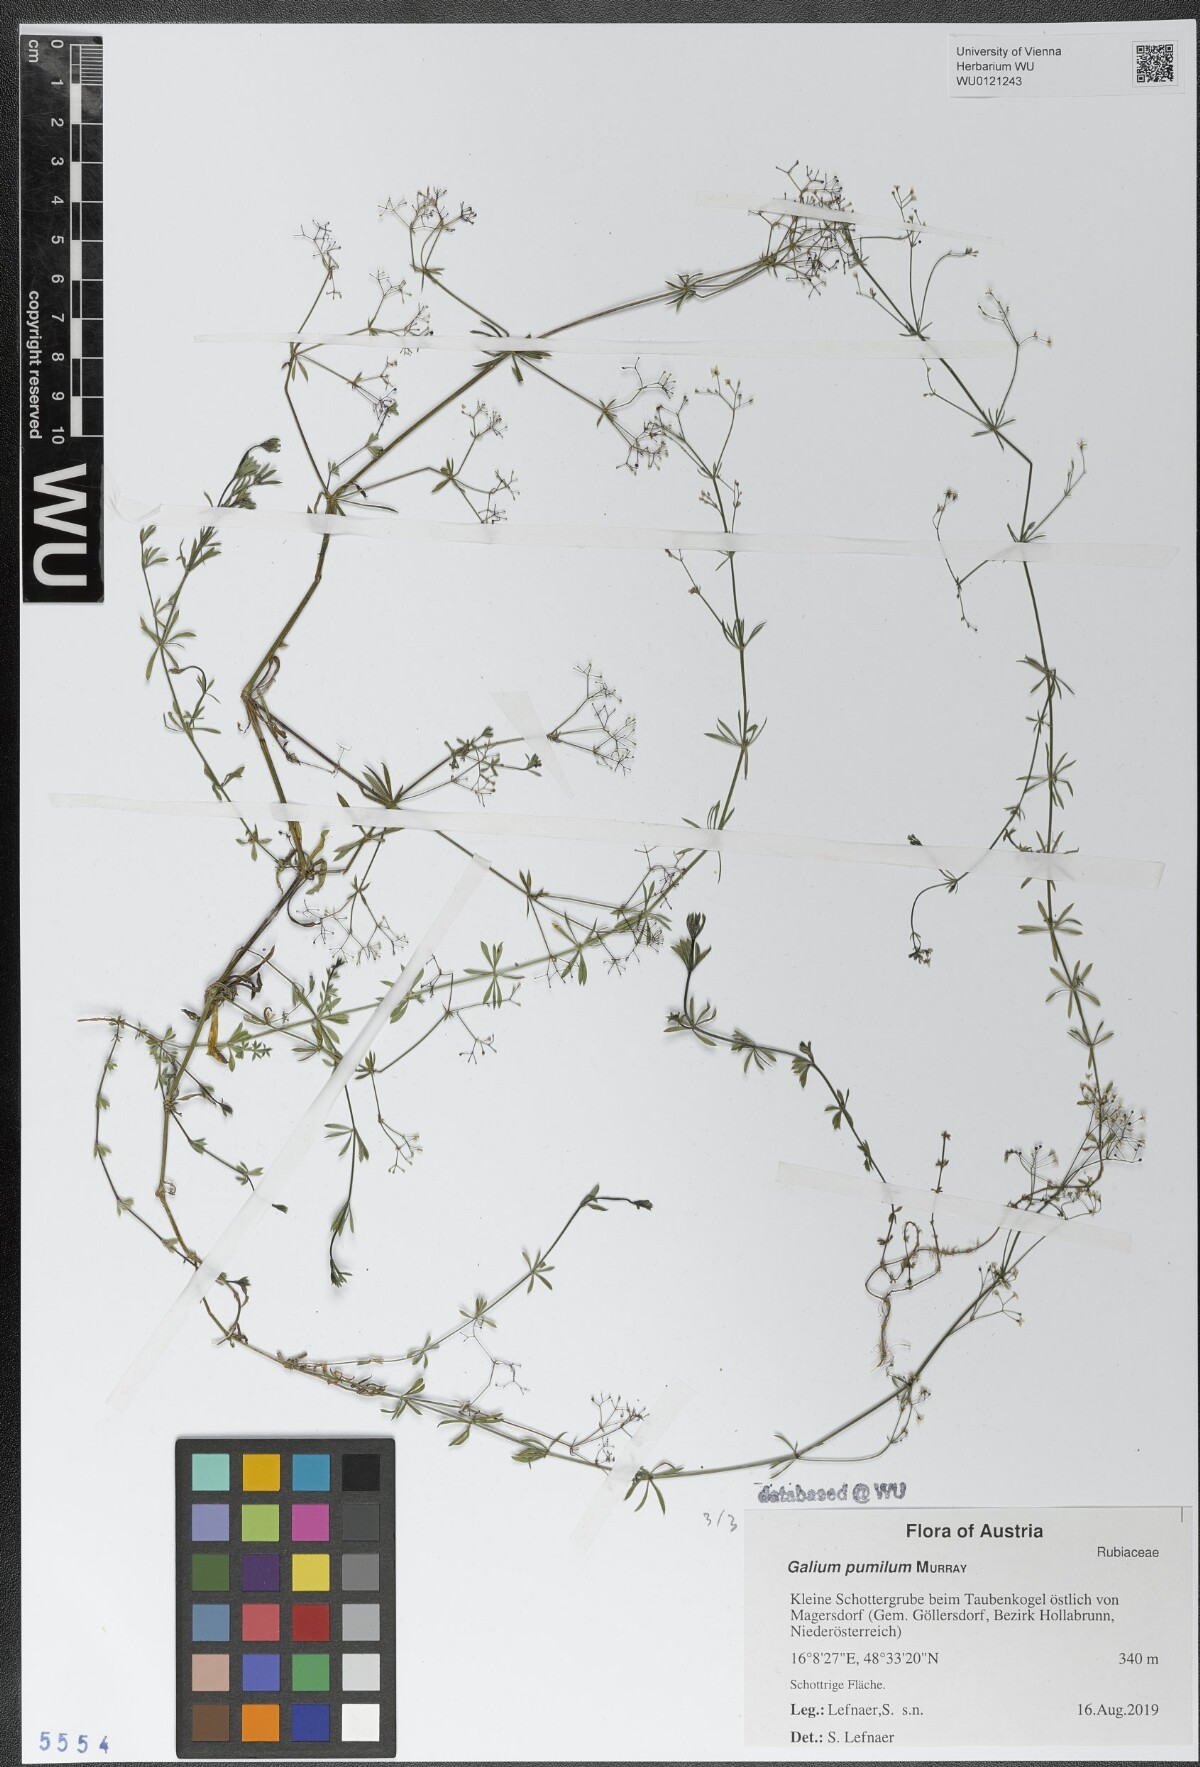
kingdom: Plantae
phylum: Tracheophyta
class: Magnoliopsida
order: Gentianales
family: Rubiaceae
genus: Galium
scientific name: Galium pumilum
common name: Slender bedstraw
